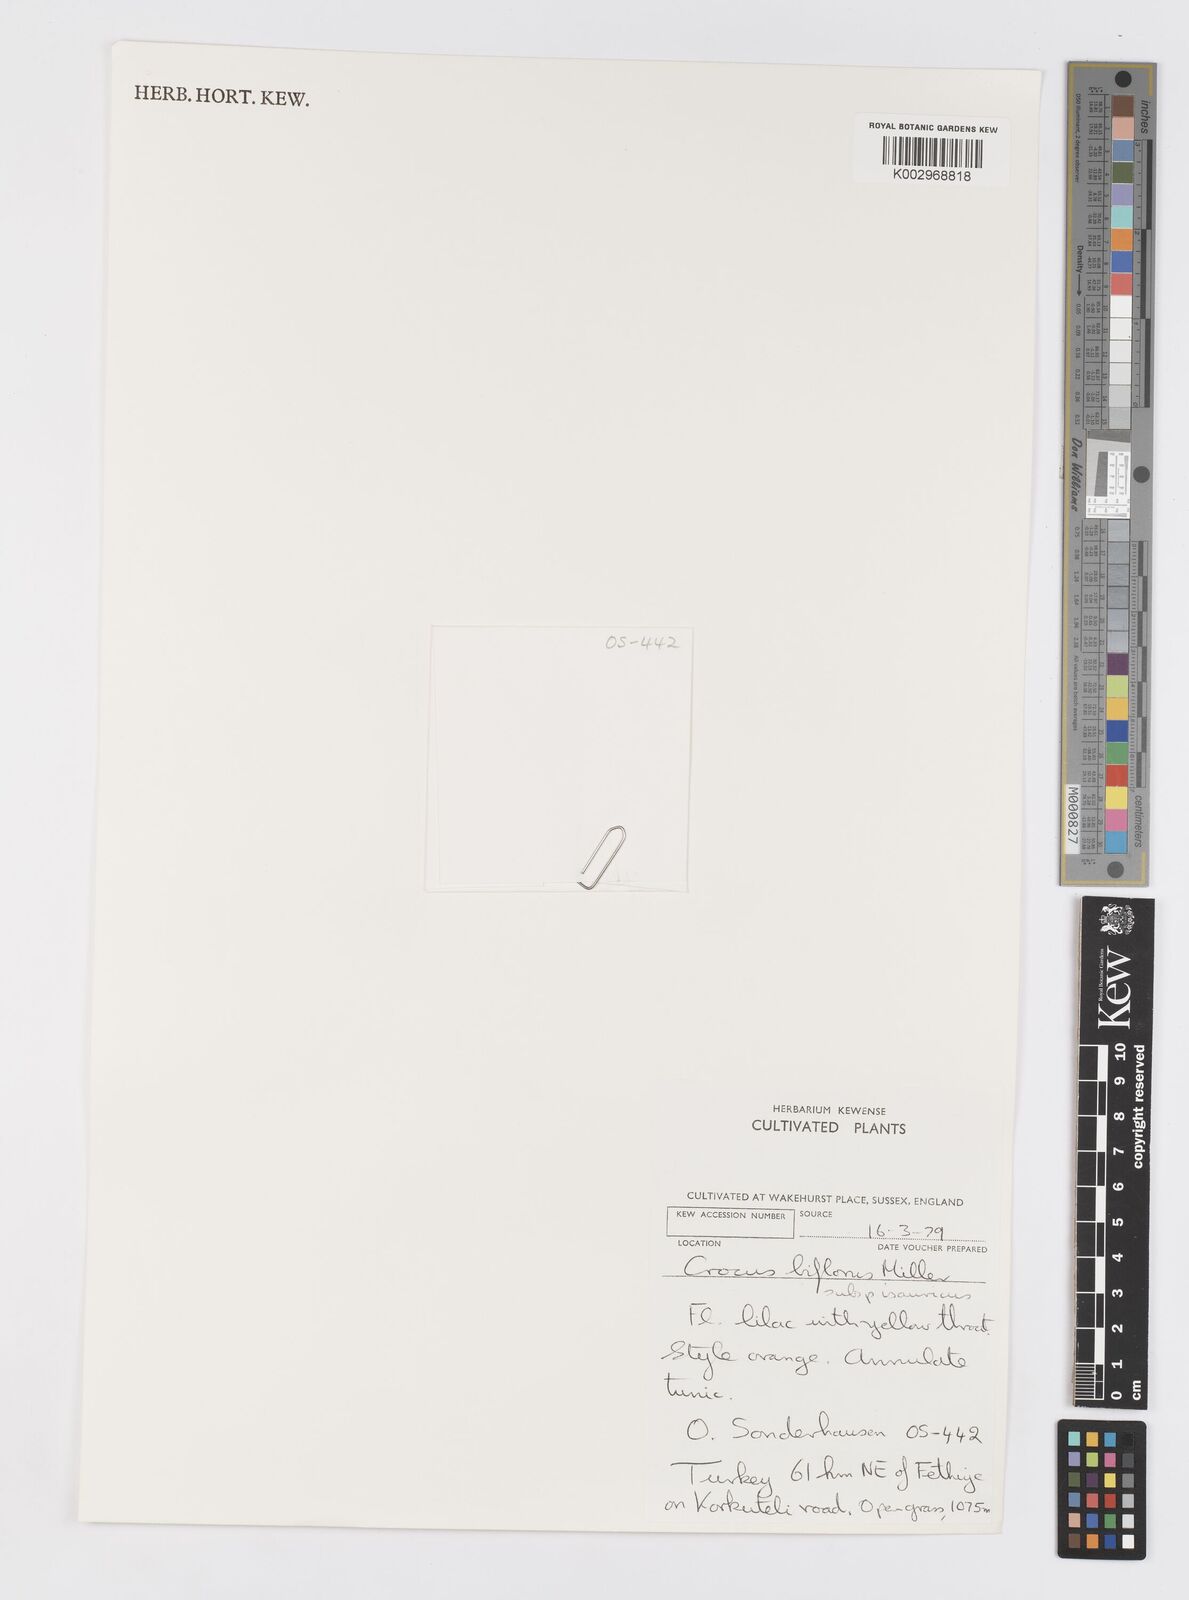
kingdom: Plantae
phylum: Tracheophyta
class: Liliopsida
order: Asparagales
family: Iridaceae
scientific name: Iridaceae
